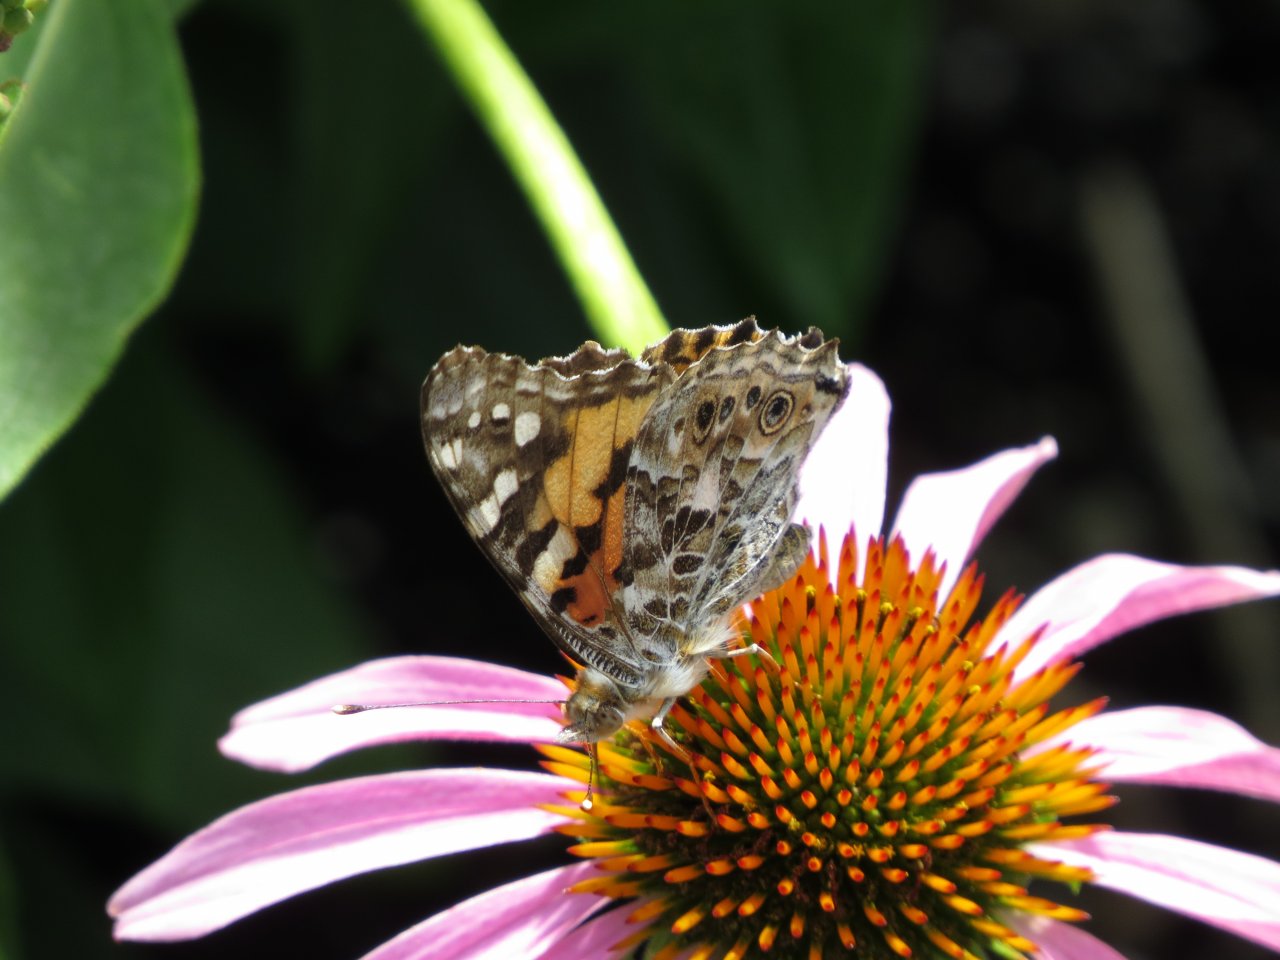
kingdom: Animalia
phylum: Arthropoda
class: Insecta
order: Lepidoptera
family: Nymphalidae
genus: Vanessa
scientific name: Vanessa cardui
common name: Painted Lady
